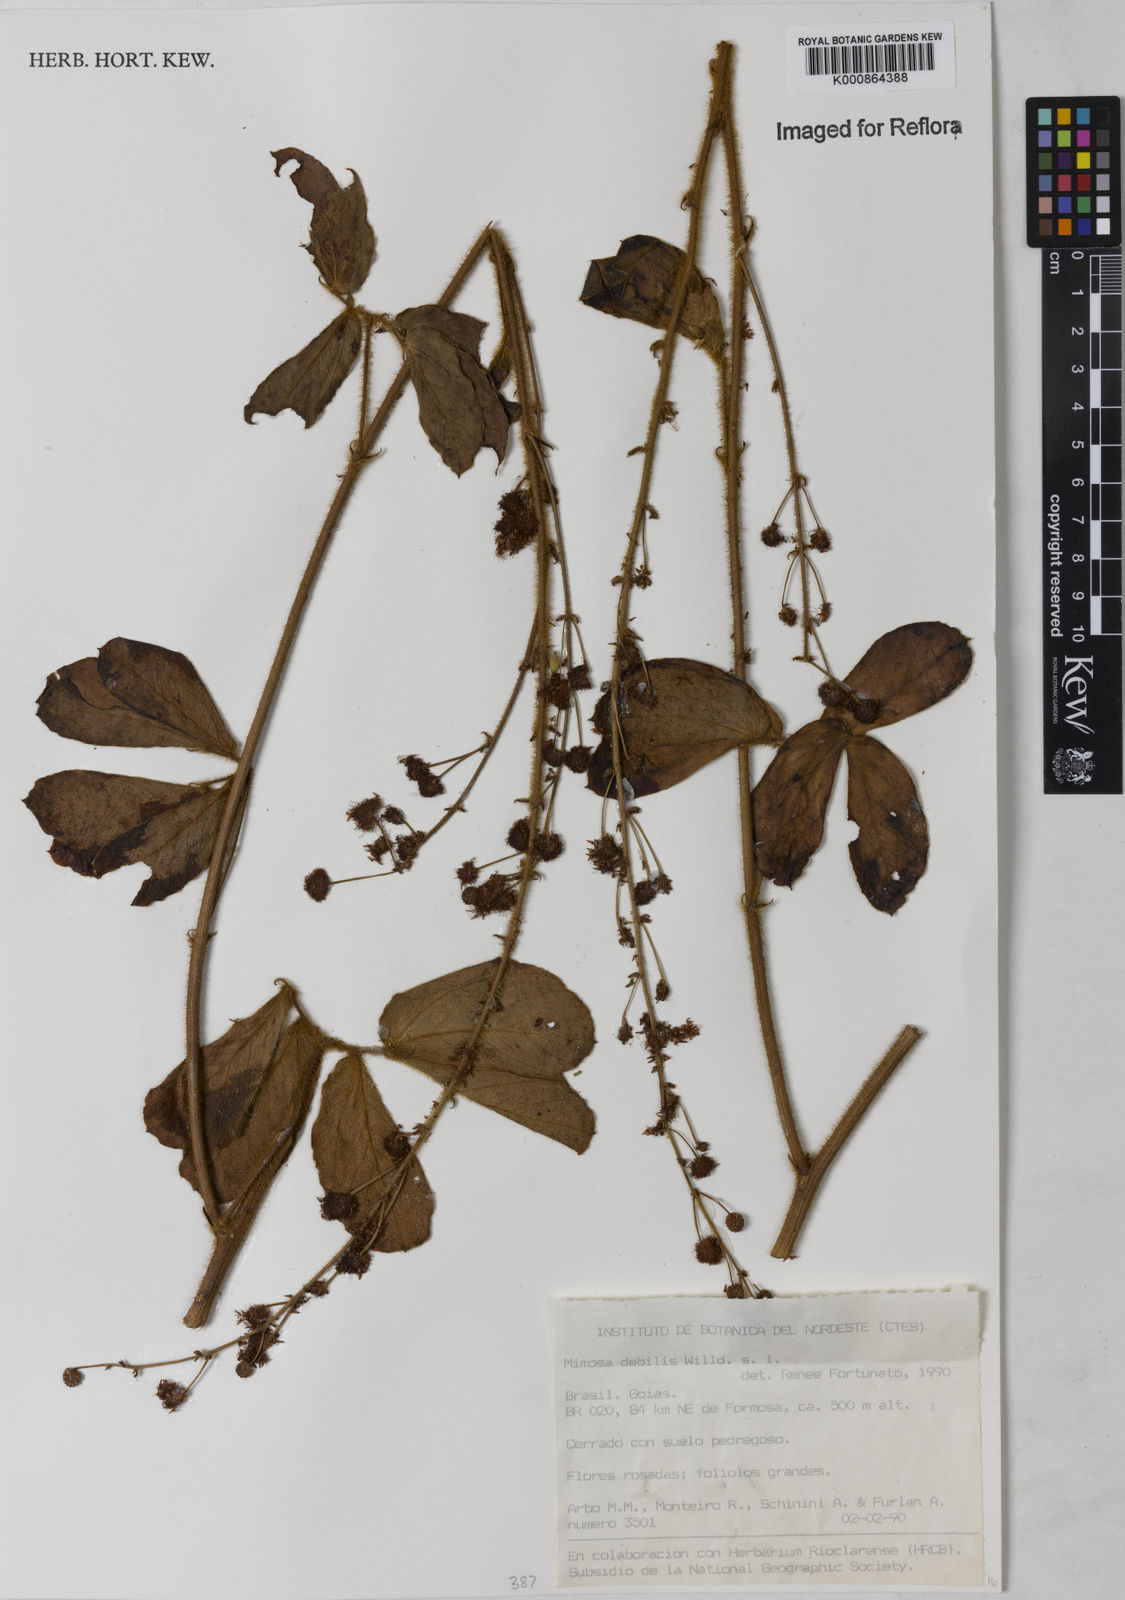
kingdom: Plantae
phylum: Tracheophyta
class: Magnoliopsida
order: Fabales
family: Fabaceae
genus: Mimosa
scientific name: Mimosa
